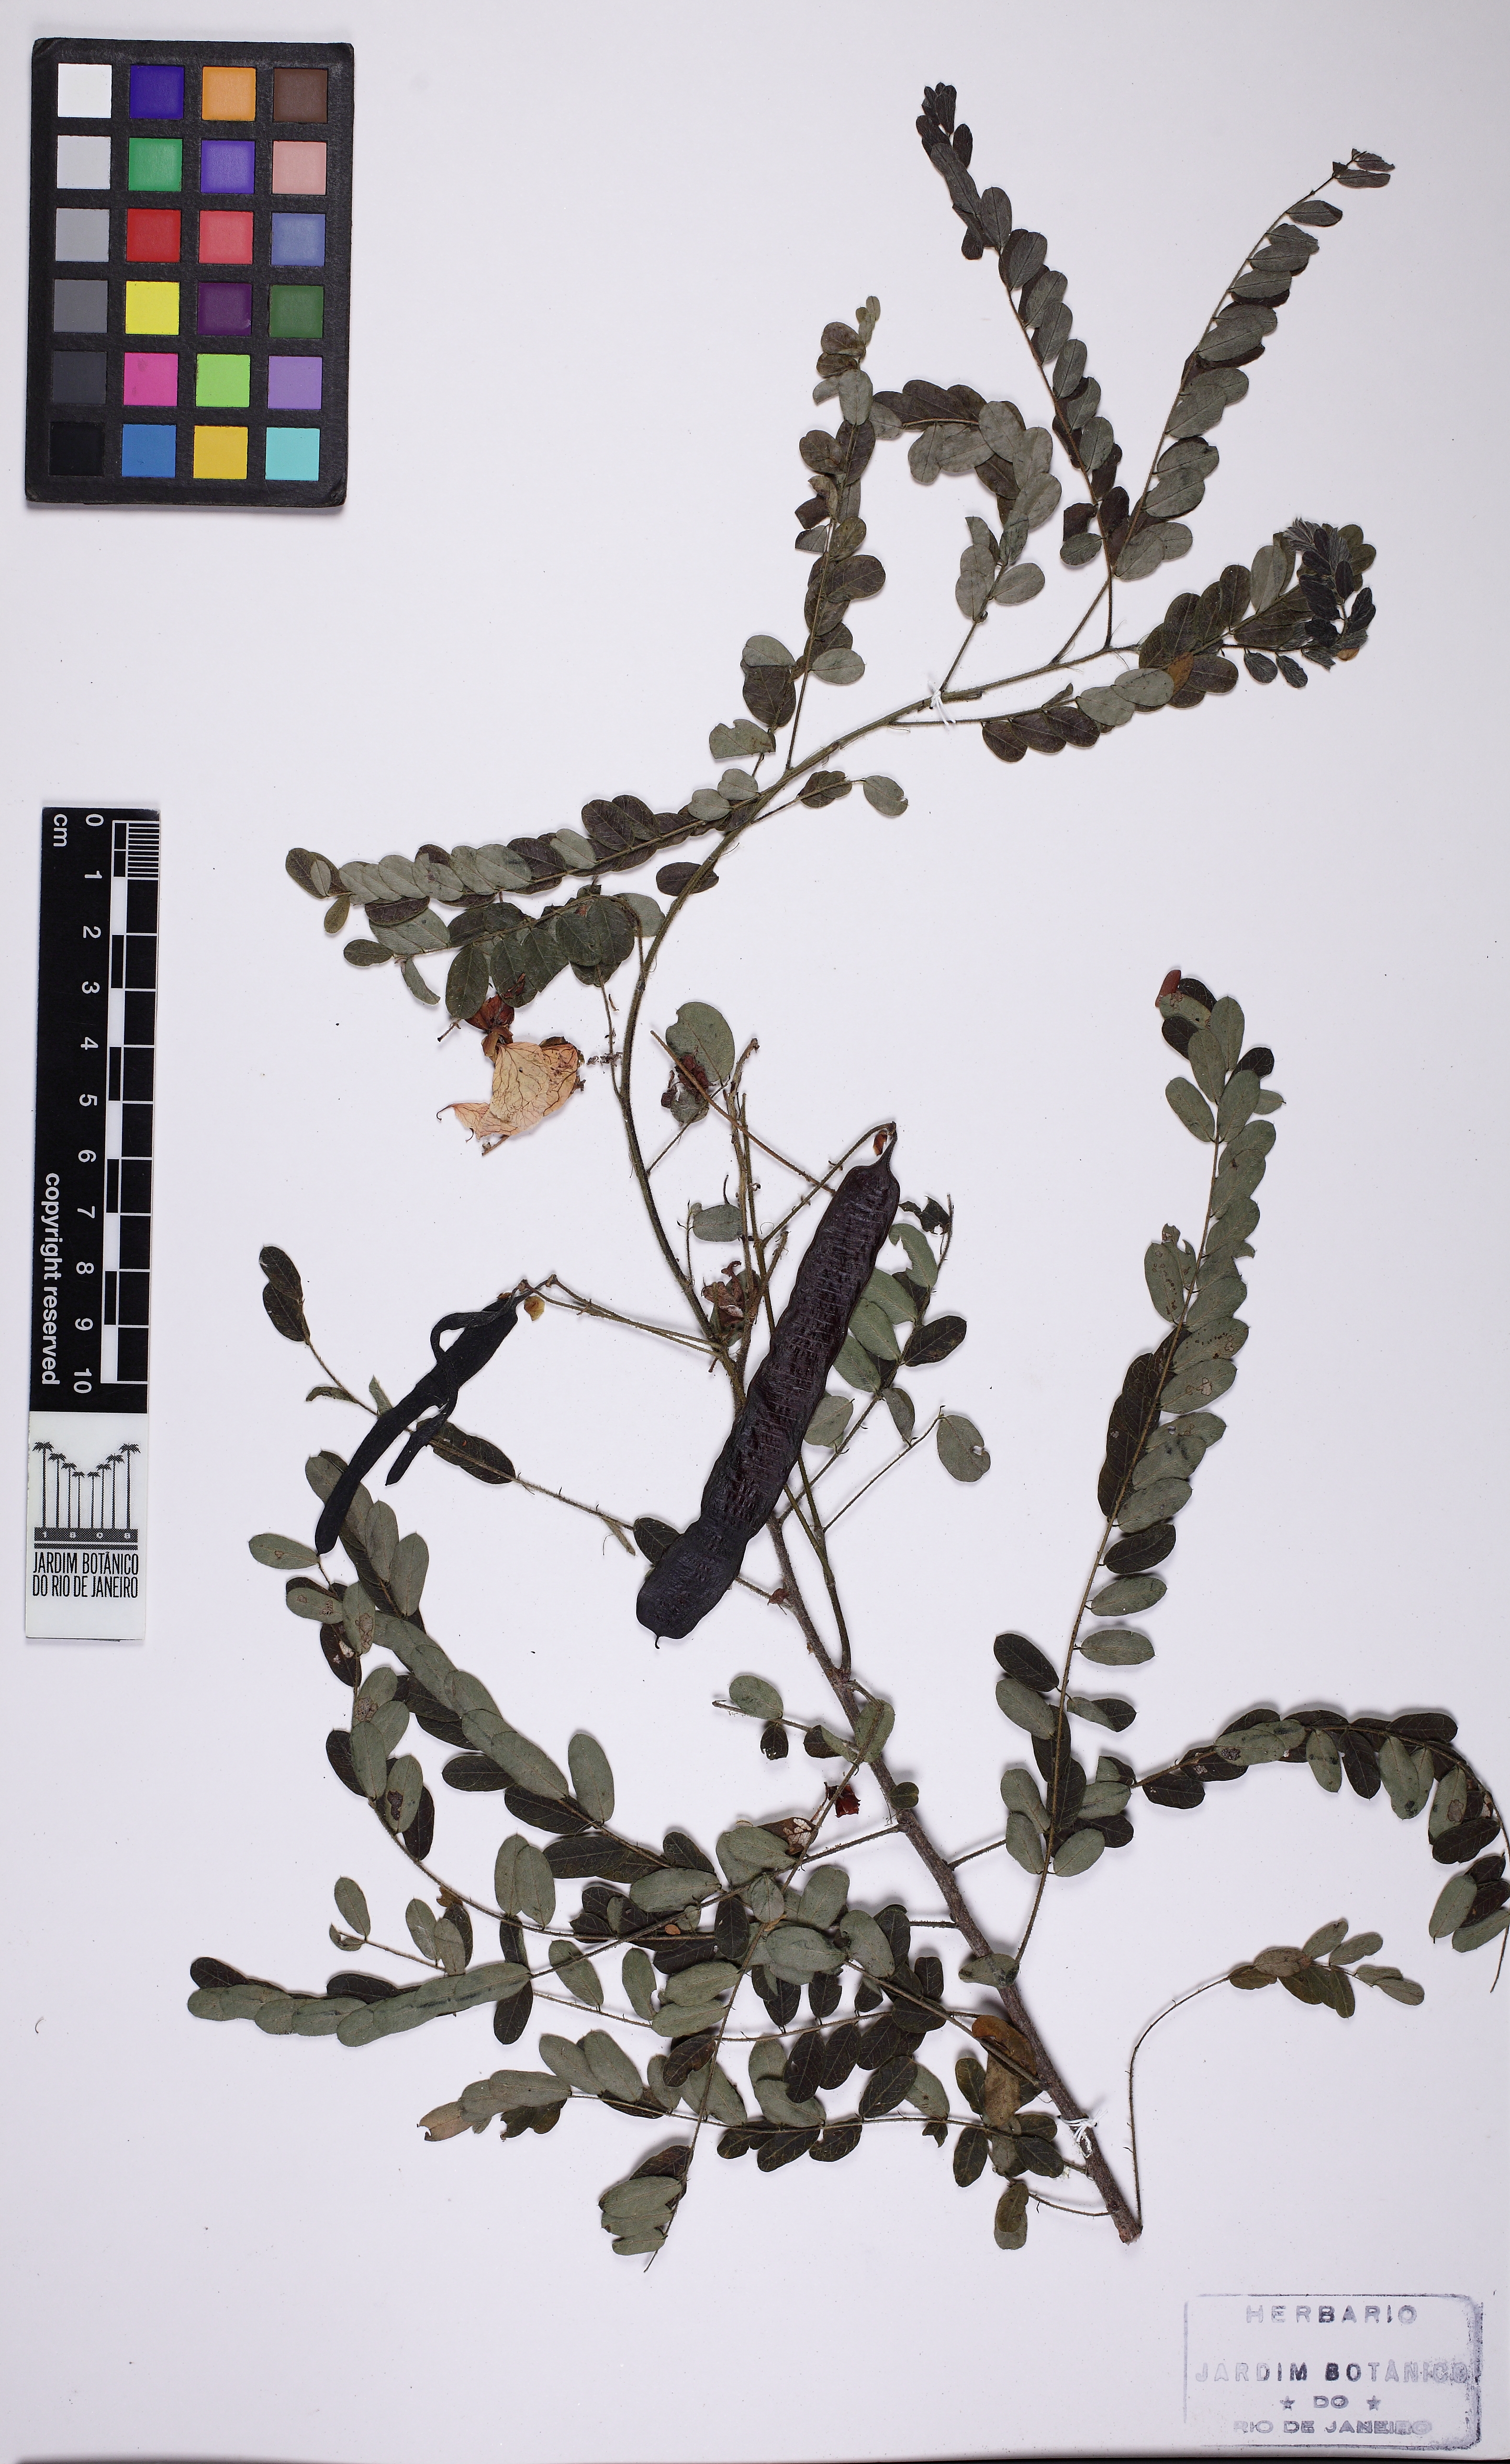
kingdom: Plantae
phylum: Tracheophyta
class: Magnoliopsida
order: Fabales
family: Fabaceae
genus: Senna
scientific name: Senna acuruensis
